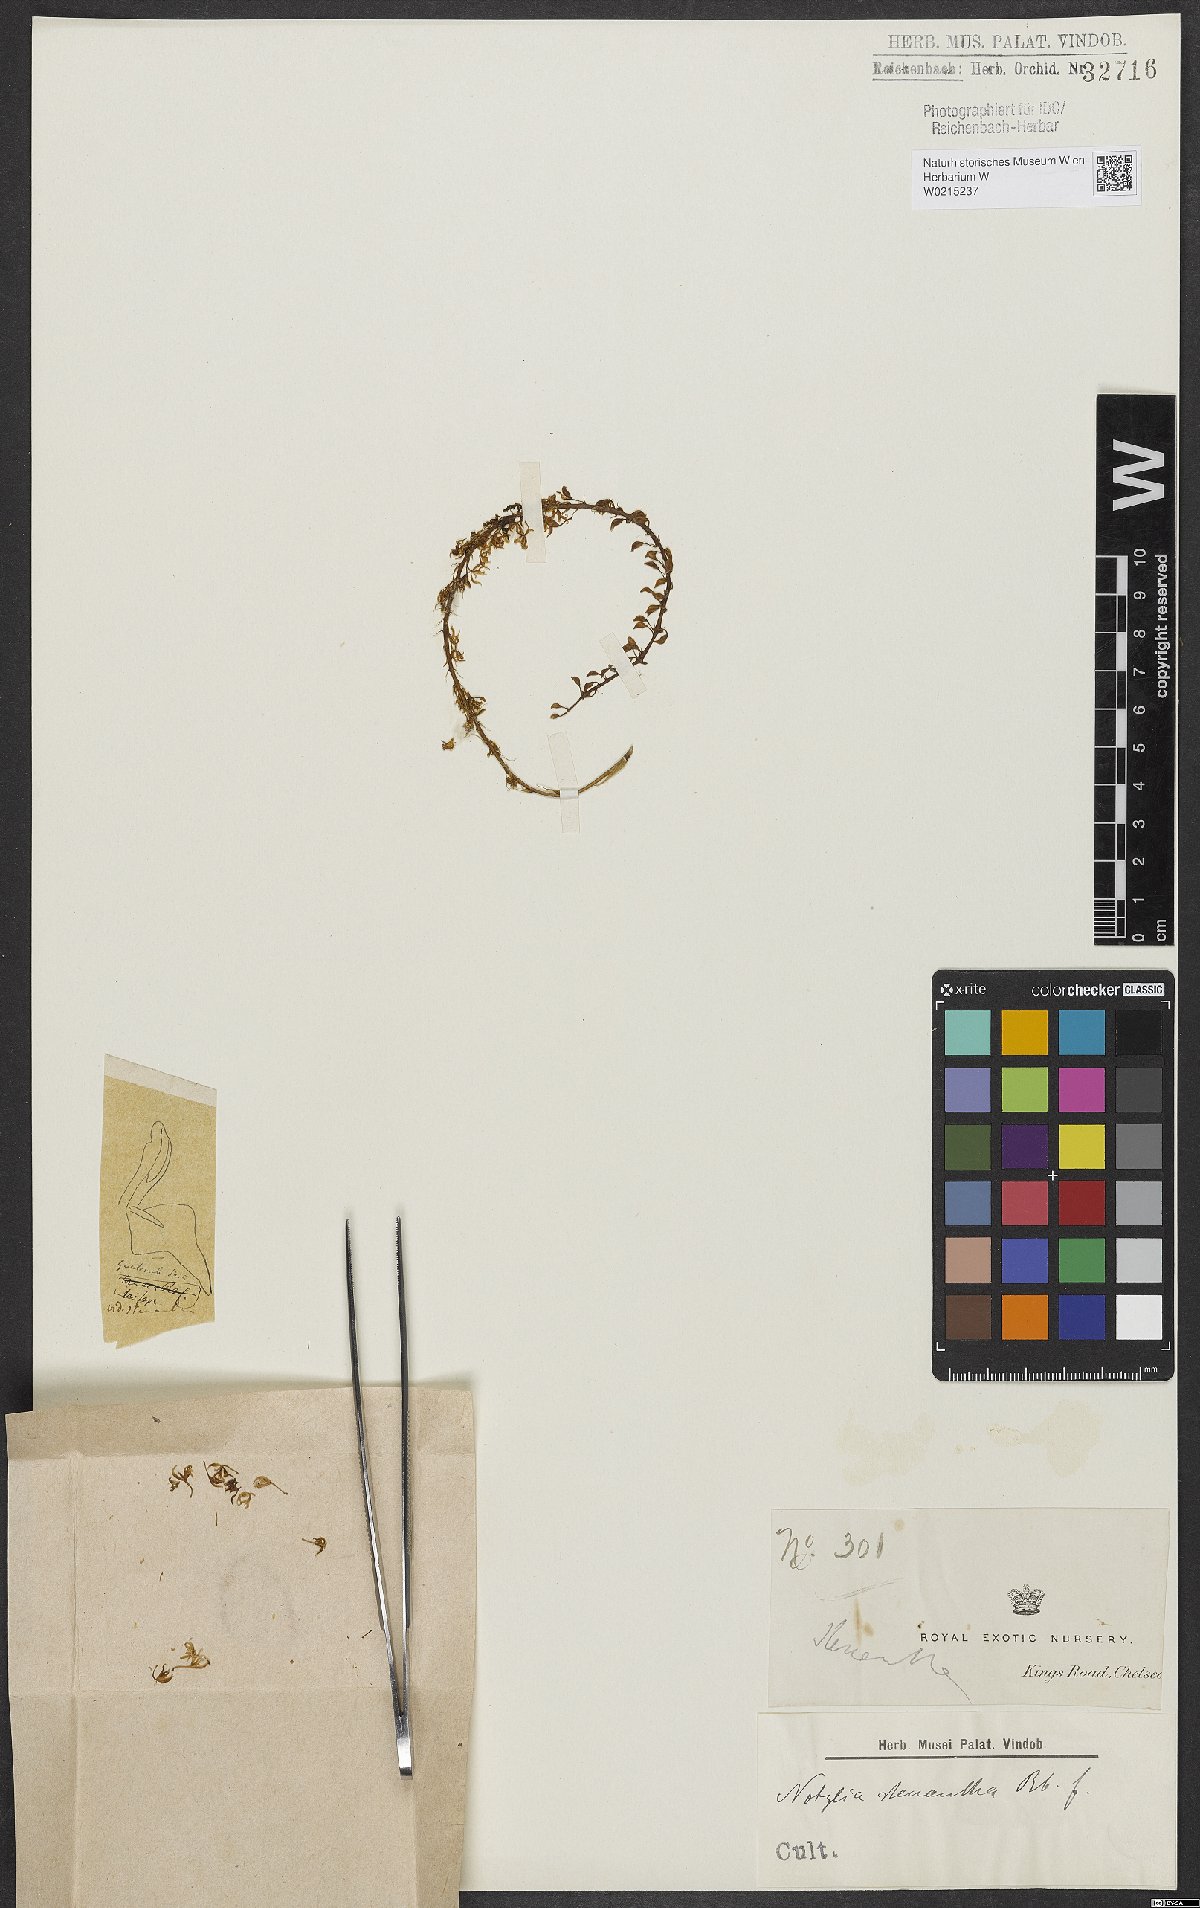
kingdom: Plantae
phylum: Tracheophyta
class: Liliopsida
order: Asparagales
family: Orchidaceae
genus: Notylia
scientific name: Notylia stenantha
